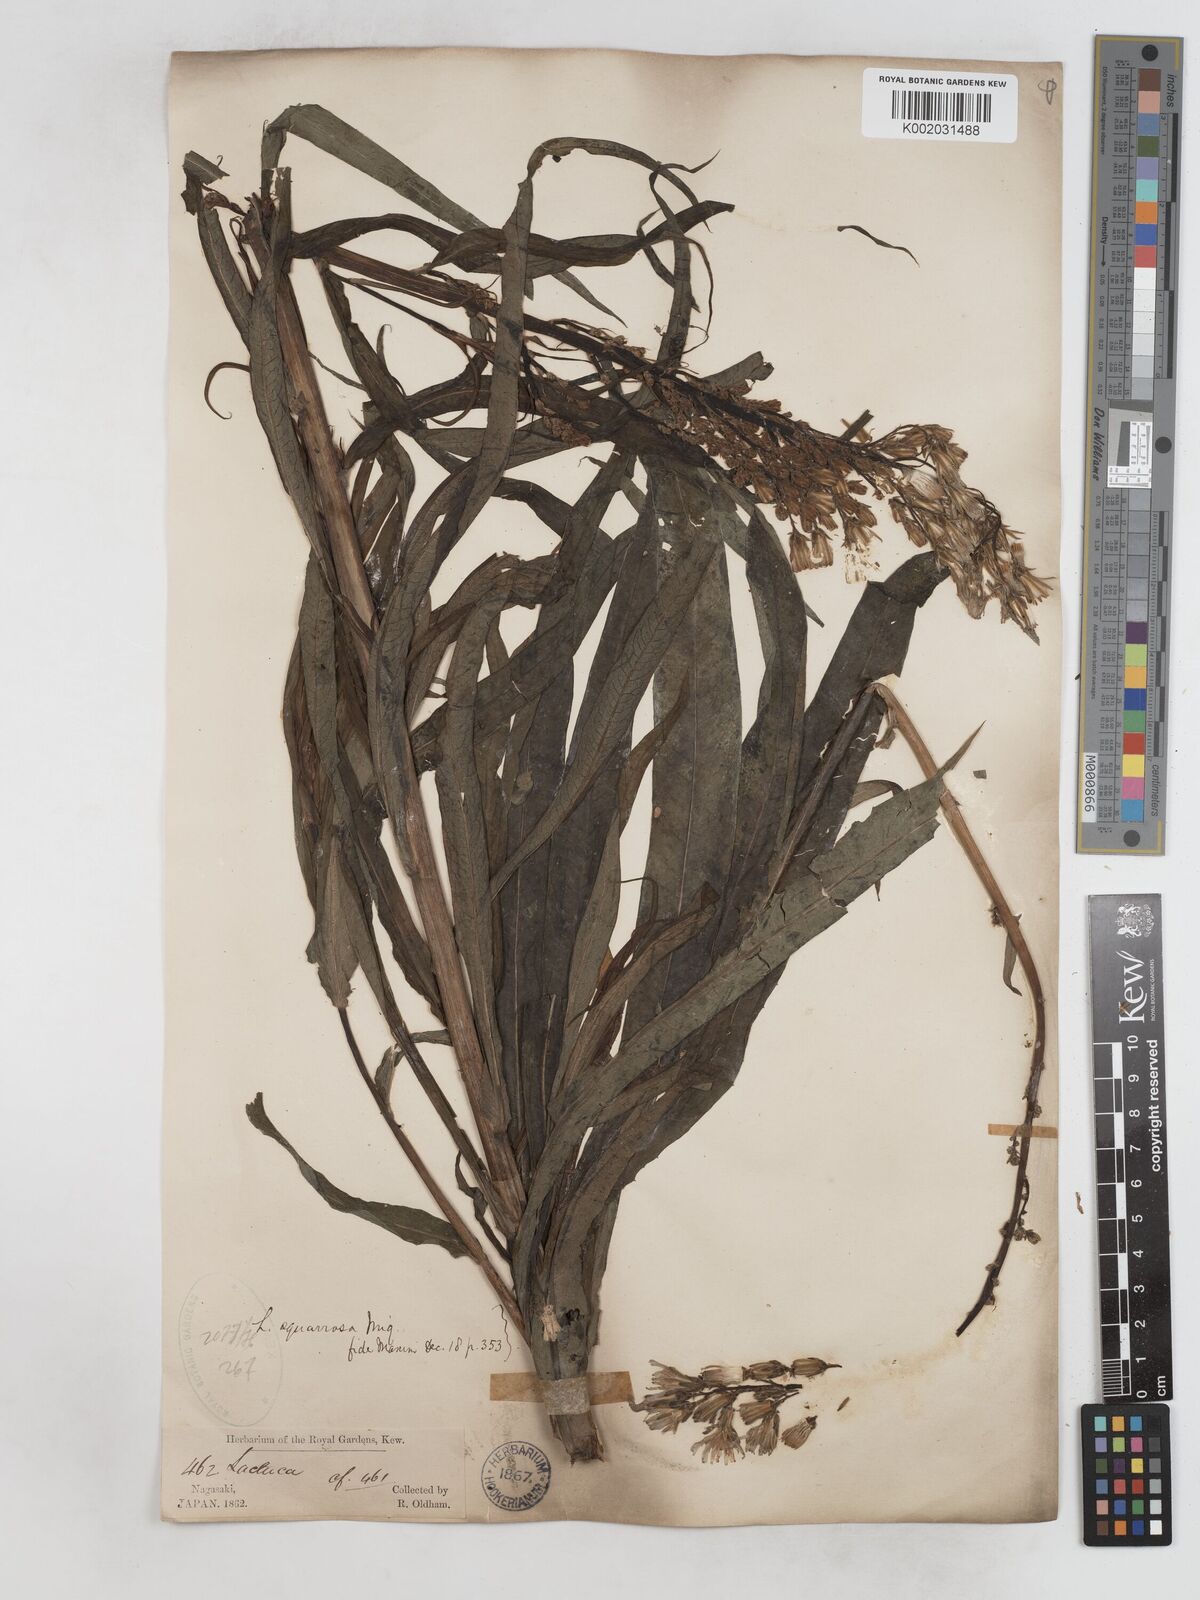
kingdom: Plantae
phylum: Tracheophyta
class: Magnoliopsida
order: Asterales
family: Asteraceae
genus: Lactuca
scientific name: Lactuca indica
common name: Wild lettuce
